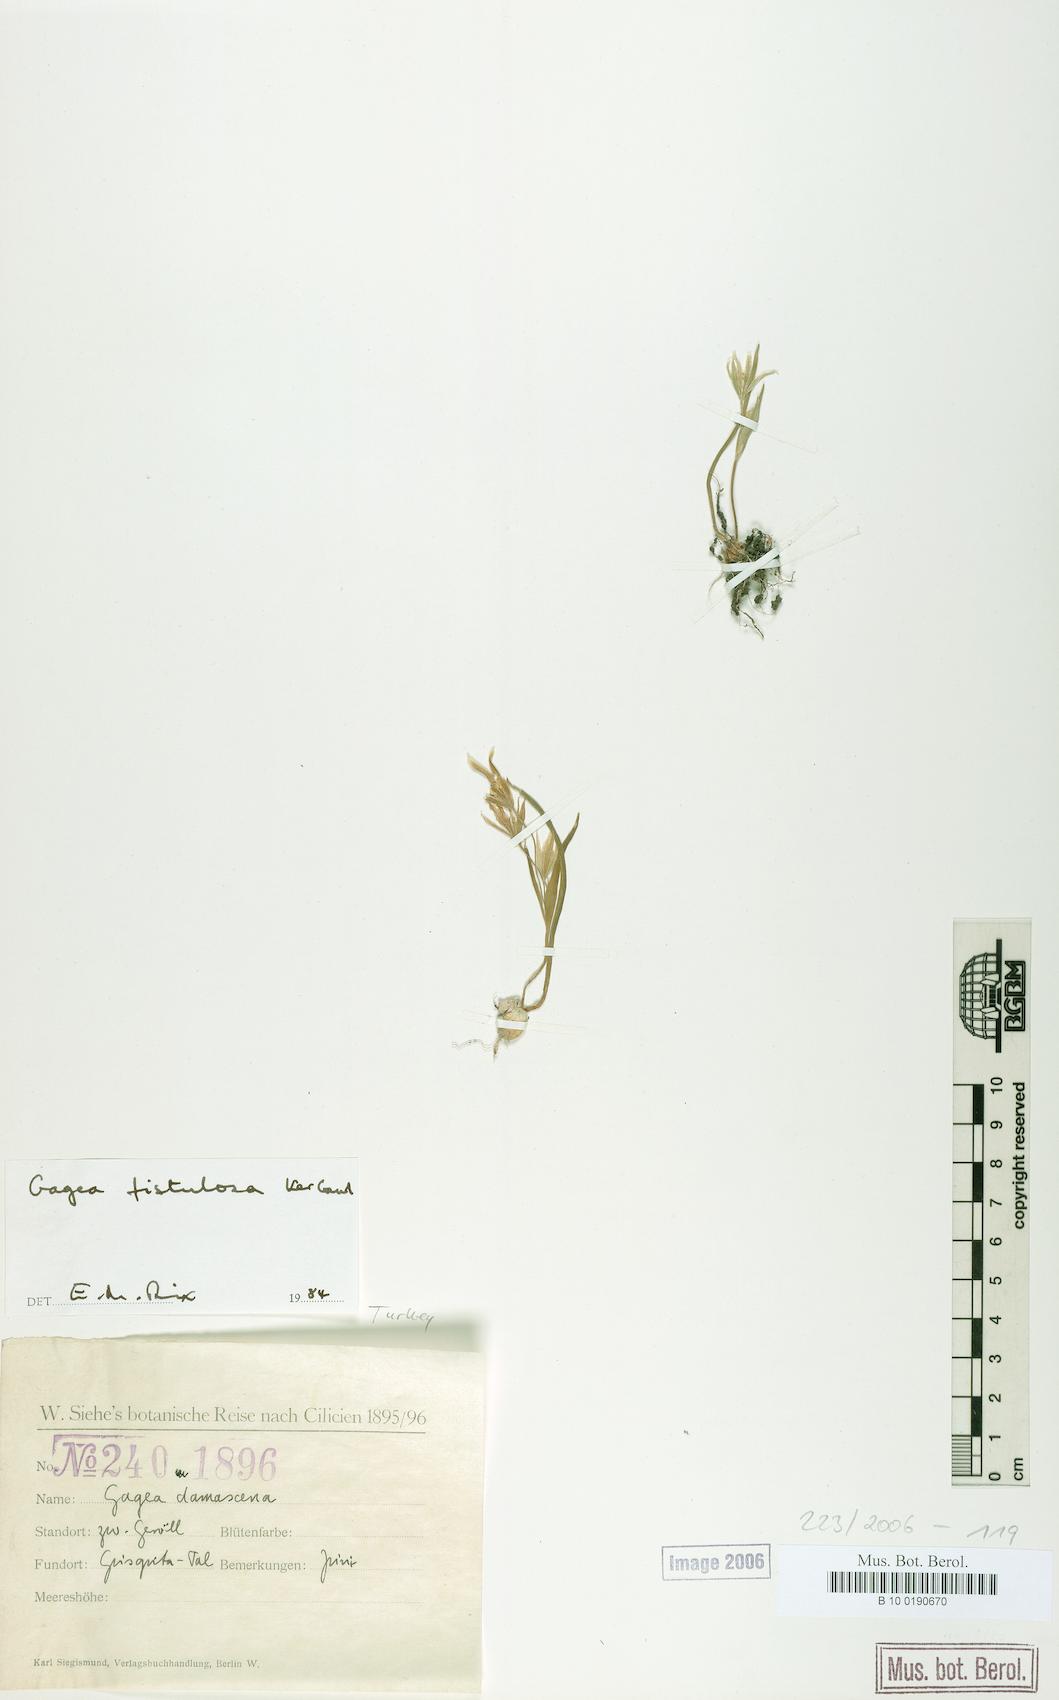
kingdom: Plantae
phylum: Tracheophyta
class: Liliopsida
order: Liliales
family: Liliaceae
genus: Gagea
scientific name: Gagea bohemica
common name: Early star-of-bethlehem
